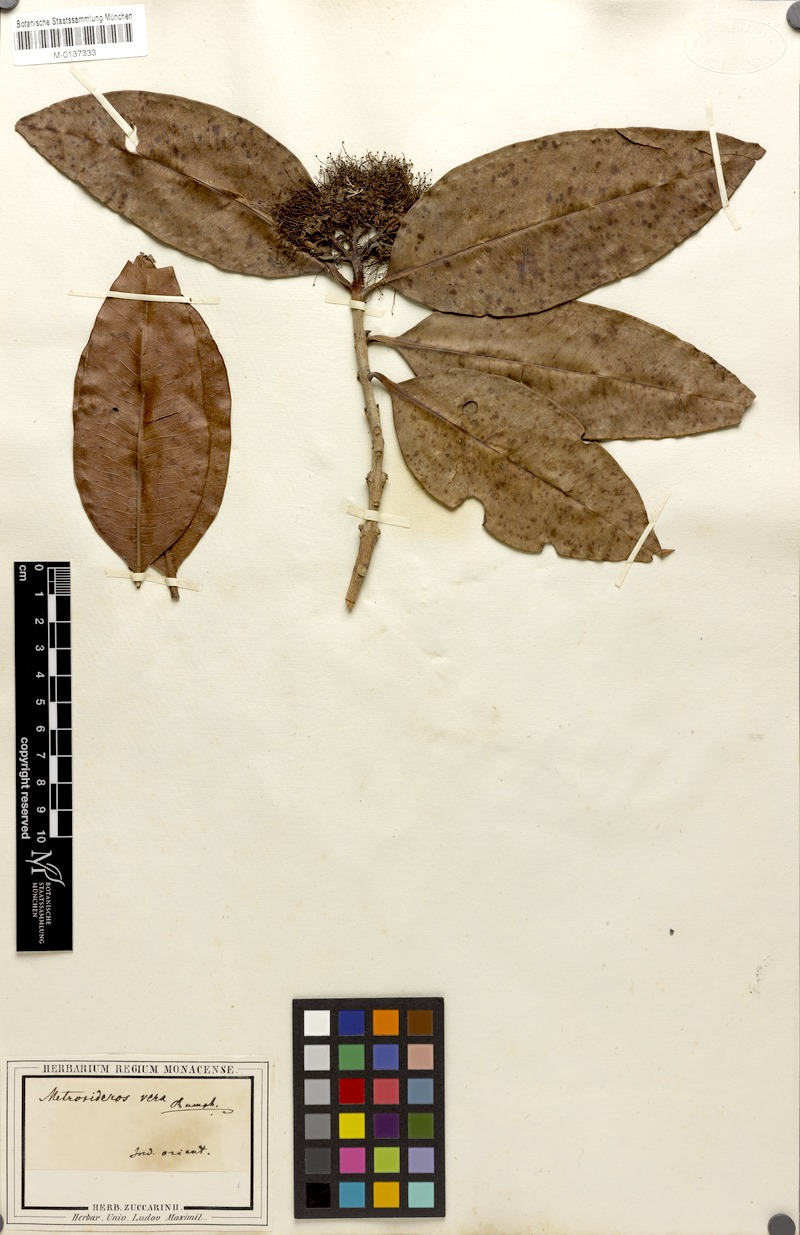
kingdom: Plantae
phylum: Tracheophyta
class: Magnoliopsida
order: Myrtales
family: Myrtaceae
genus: Xanthostemon
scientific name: Xanthostemon verus
